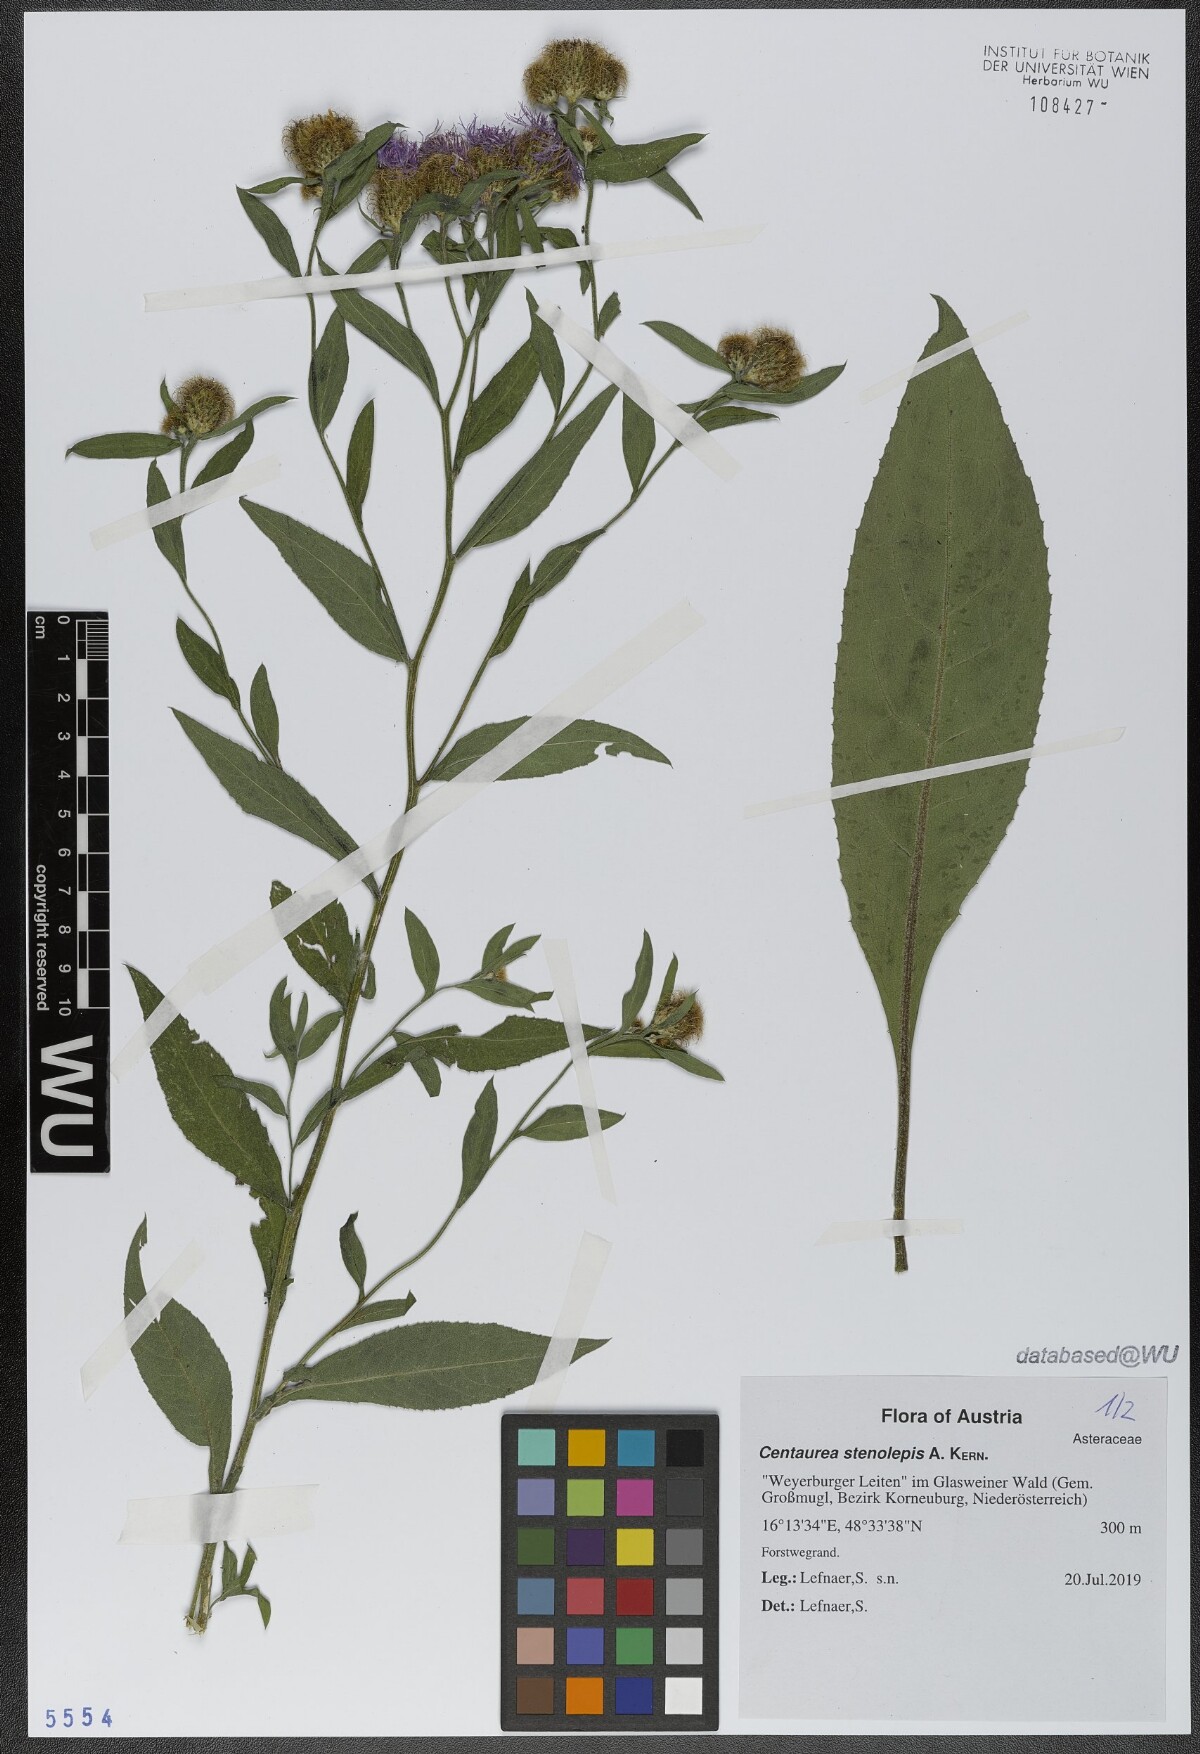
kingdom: Plantae
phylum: Tracheophyta
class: Magnoliopsida
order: Asterales
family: Asteraceae
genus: Centaurea
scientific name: Centaurea stenolepis
